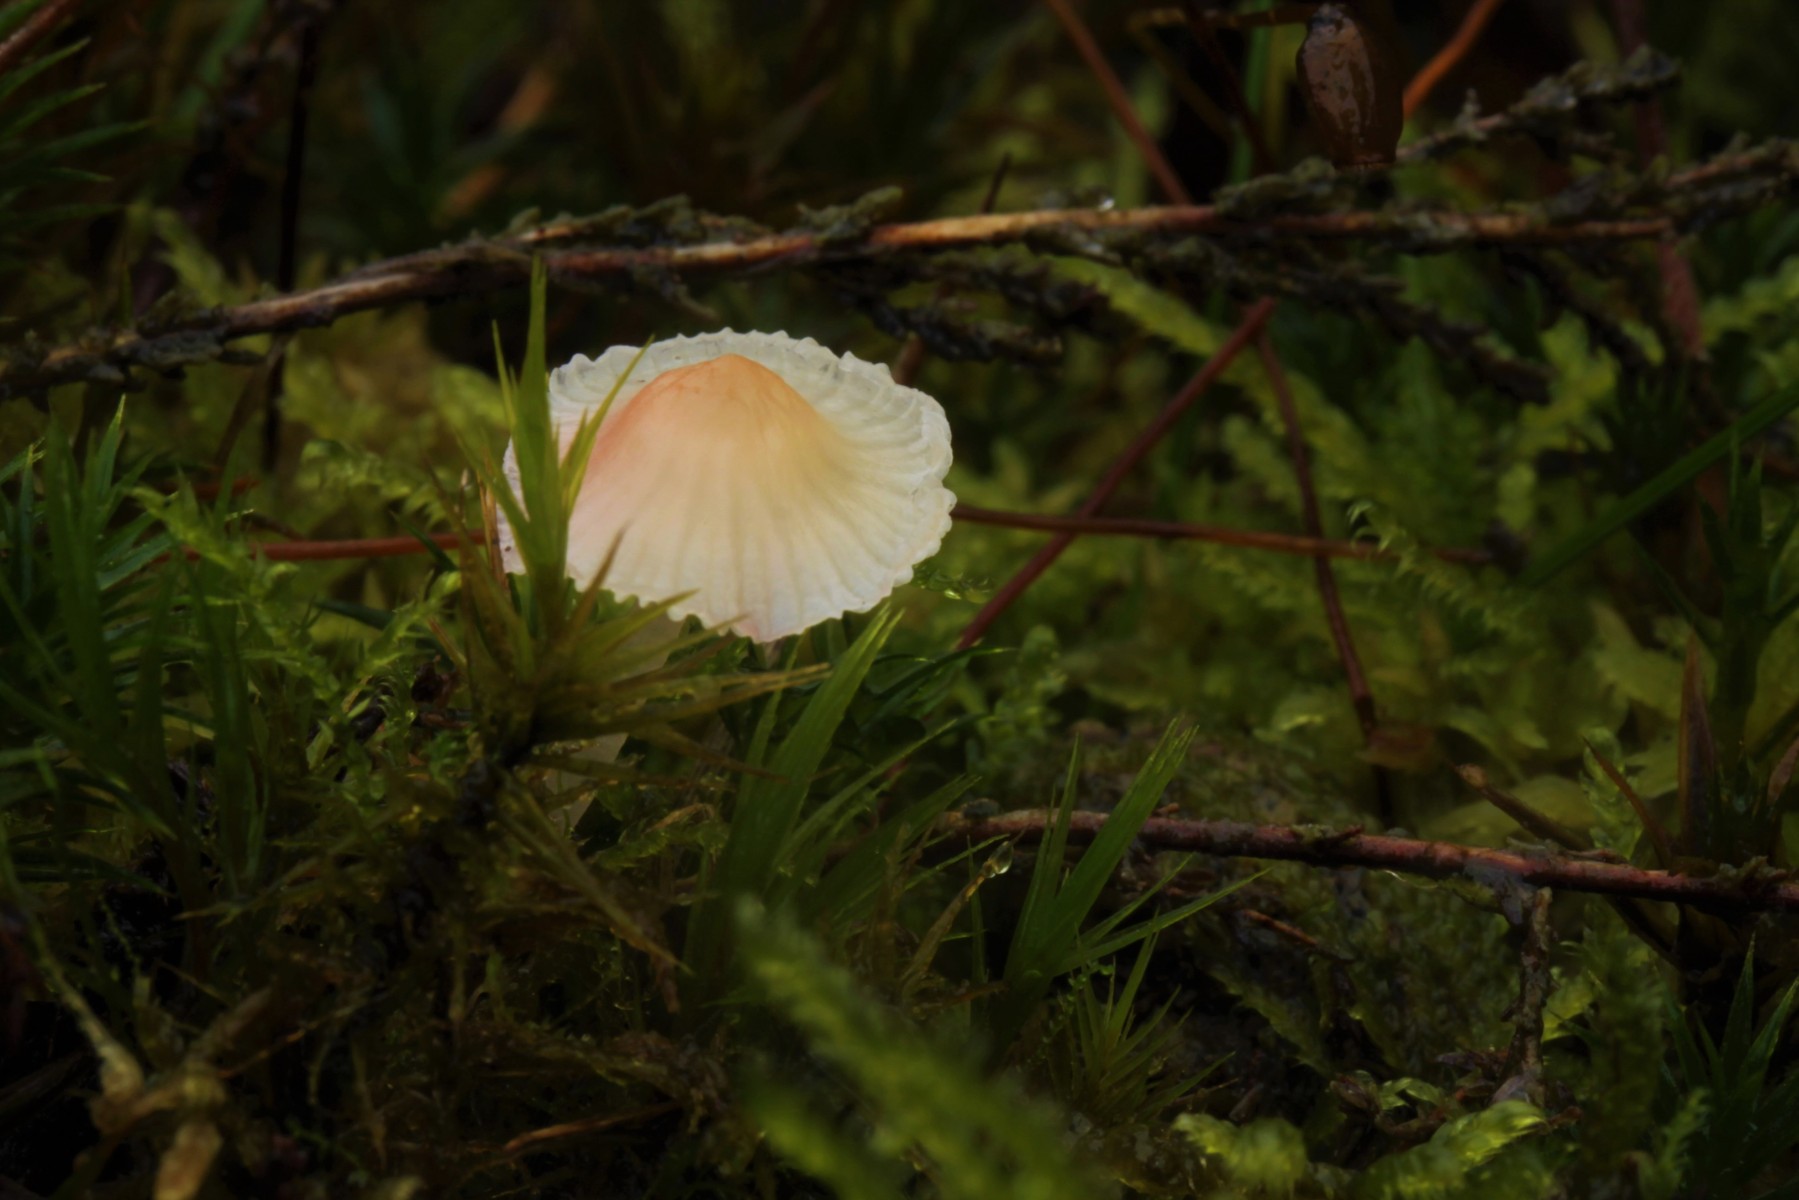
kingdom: Fungi
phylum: Basidiomycota
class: Agaricomycetes
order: Agaricales
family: Mycenaceae
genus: Atheniella
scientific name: Atheniella adonis
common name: rønnerød huesvamp
